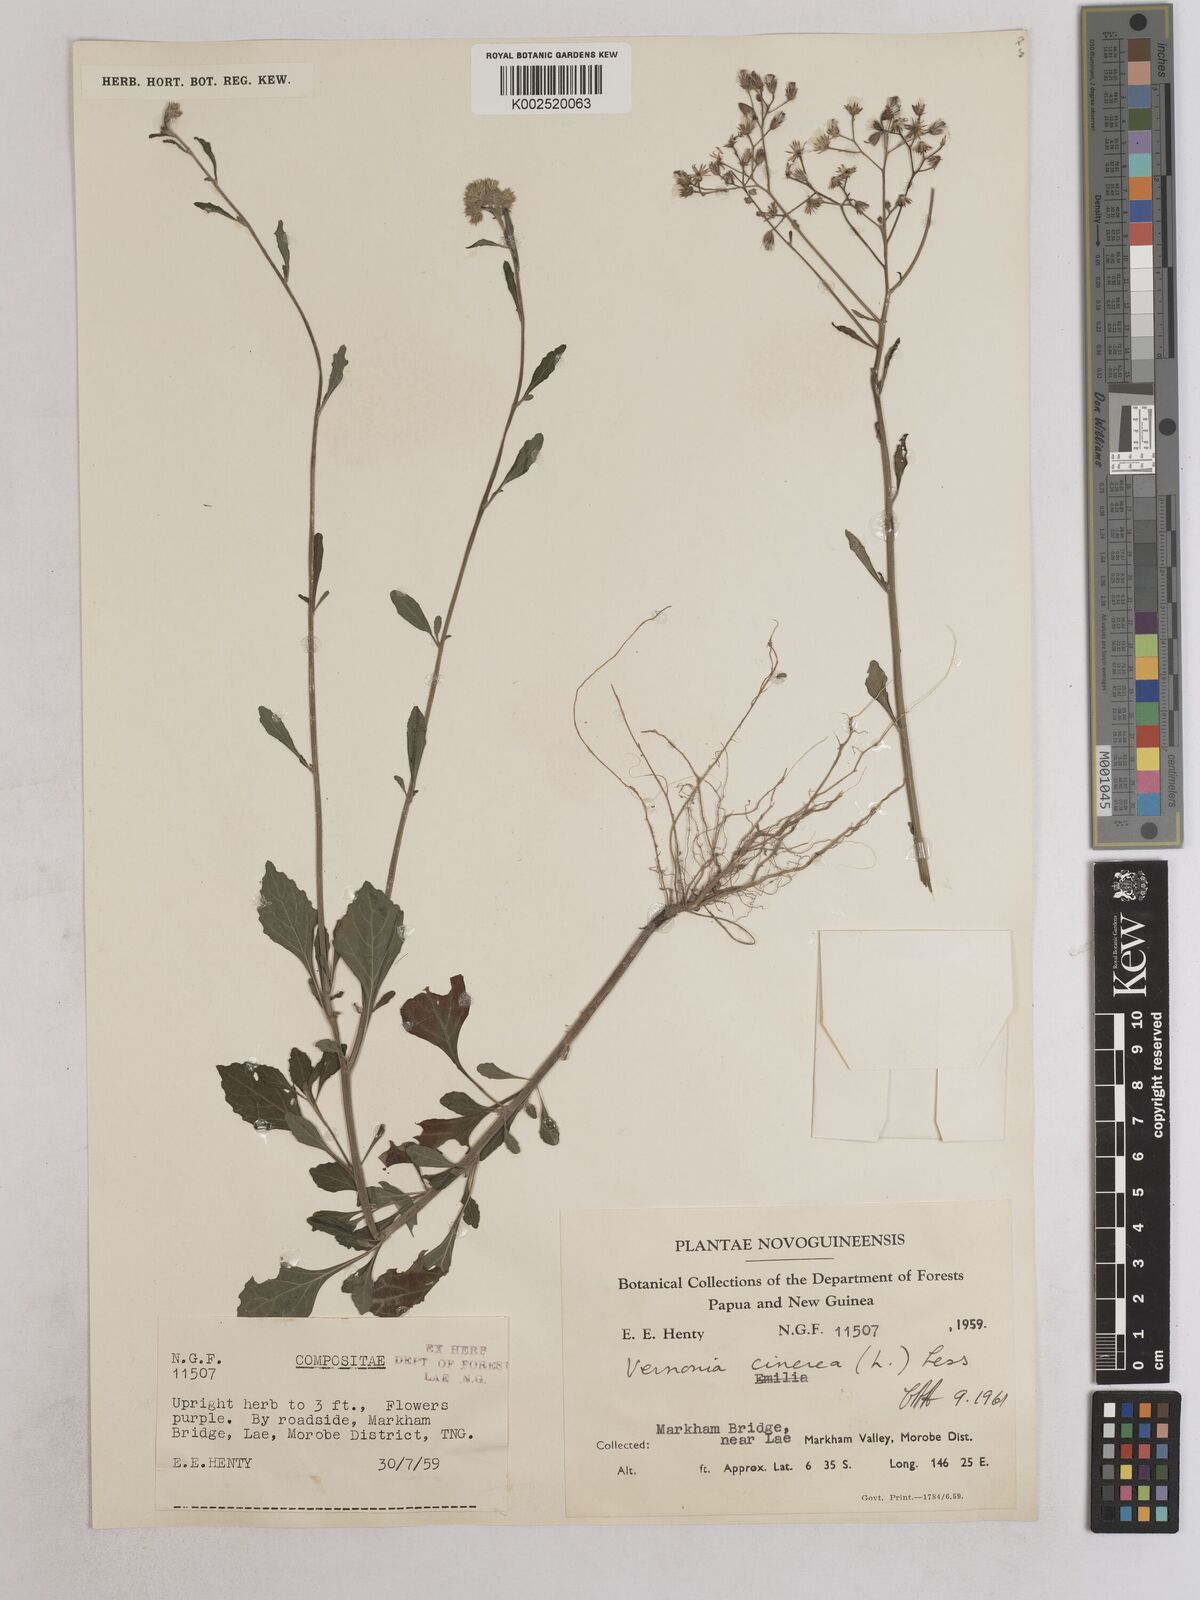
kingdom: Plantae
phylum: Tracheophyta
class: Magnoliopsida
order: Asterales
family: Asteraceae
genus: Cyanthillium
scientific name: Cyanthillium cinereum
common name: Little ironweed
